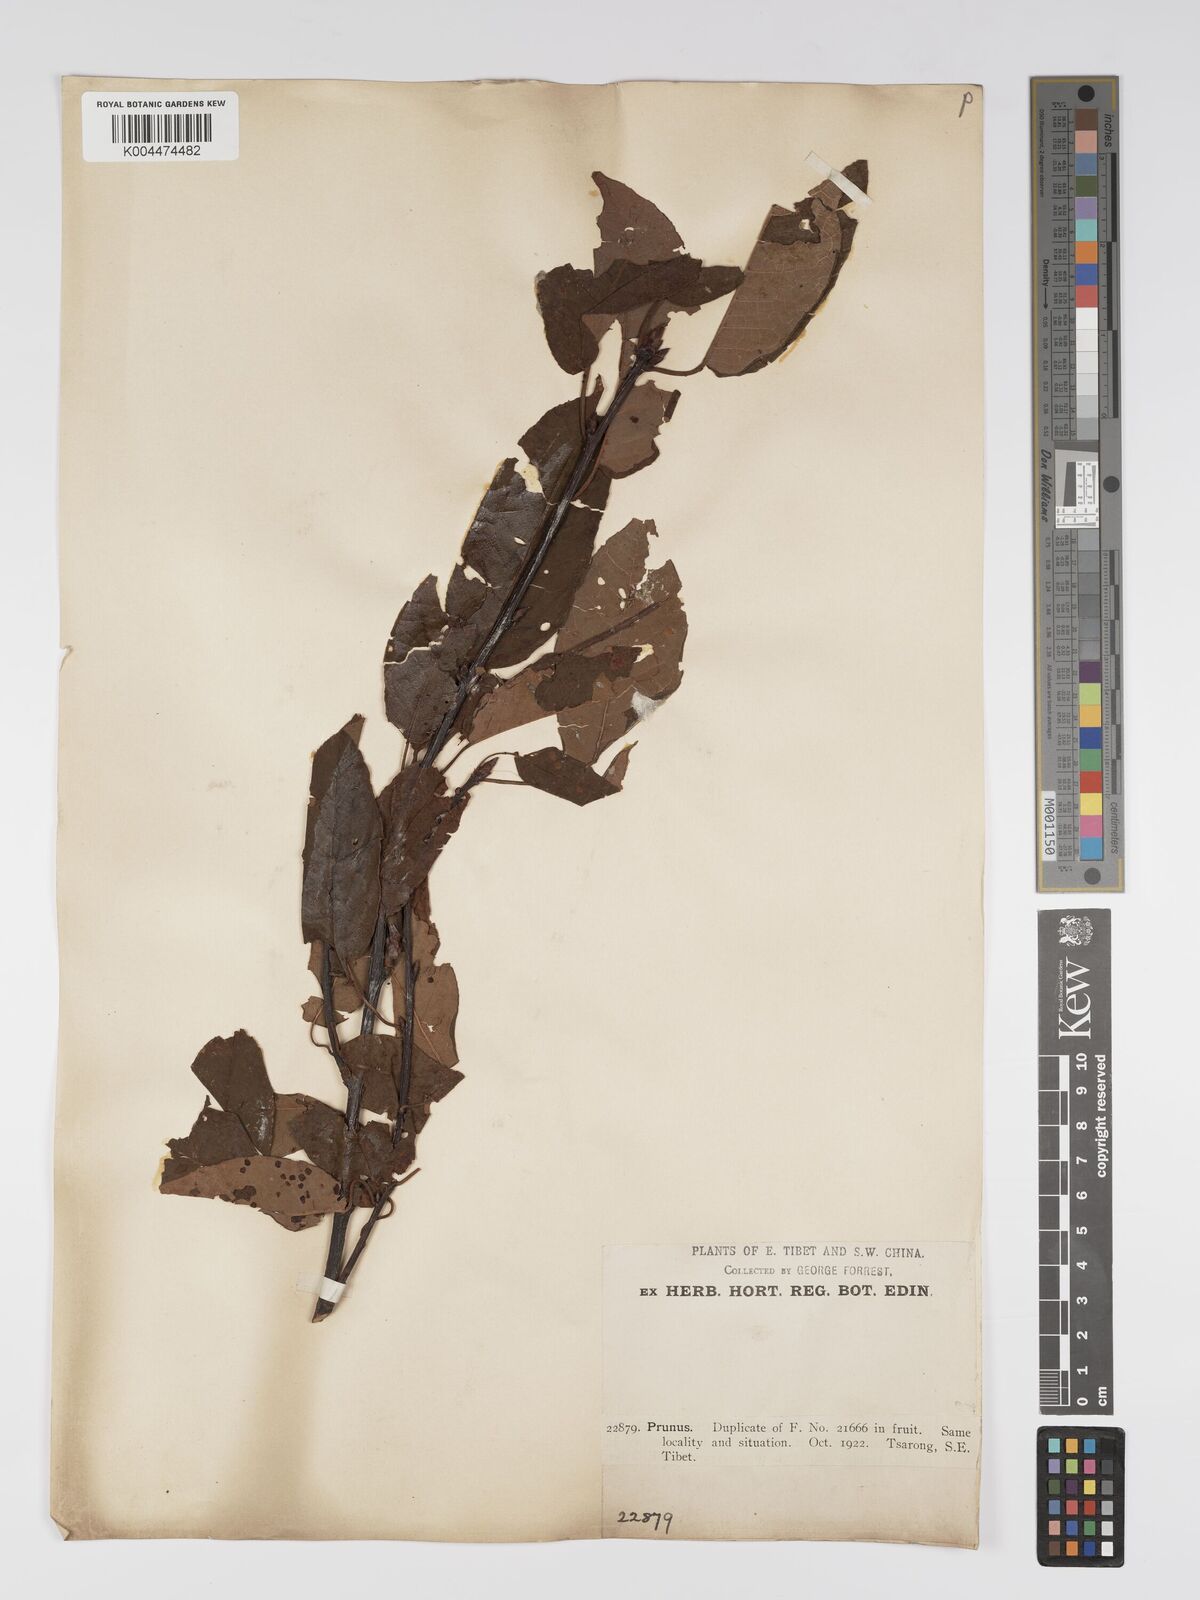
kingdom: Plantae
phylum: Tracheophyta
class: Magnoliopsida
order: Rosales
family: Rosaceae
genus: Prunus
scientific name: Prunus
